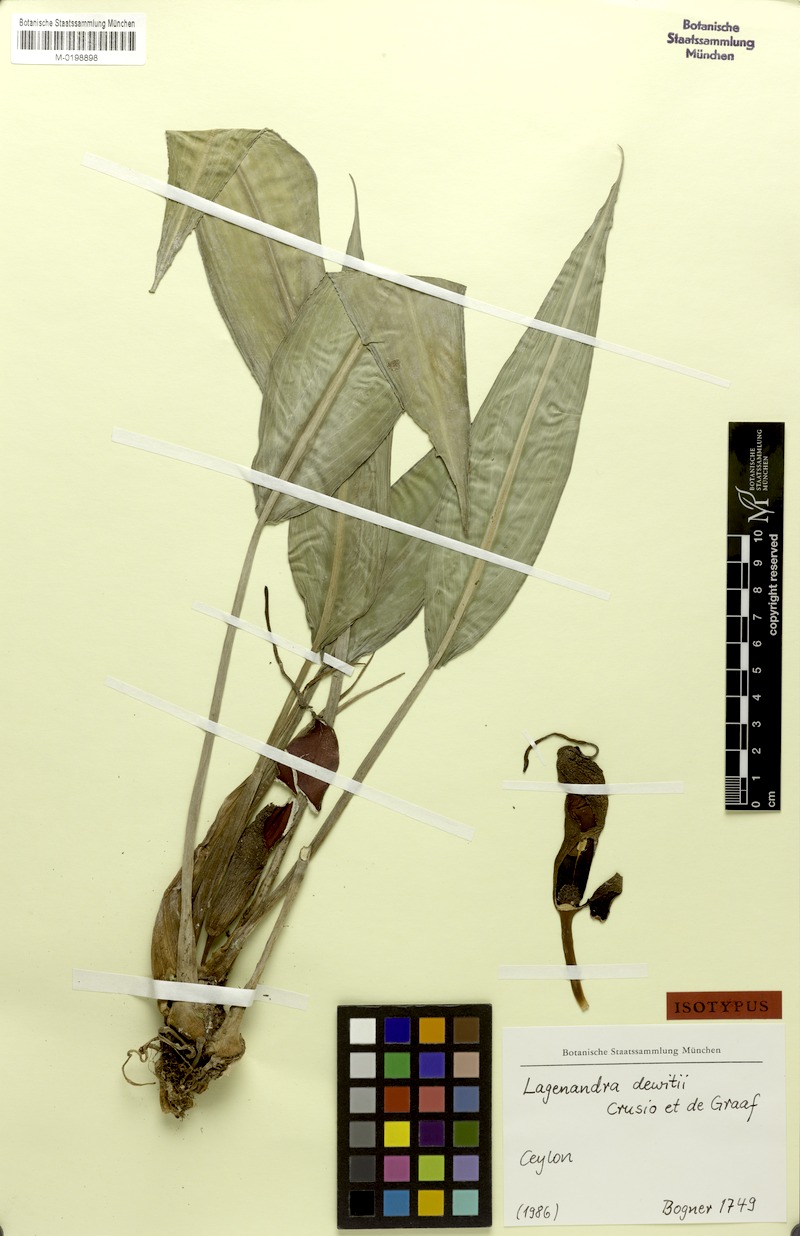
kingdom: Plantae
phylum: Tracheophyta
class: Liliopsida
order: Alismatales
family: Araceae
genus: Lagenandra
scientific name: Lagenandra dewitii
